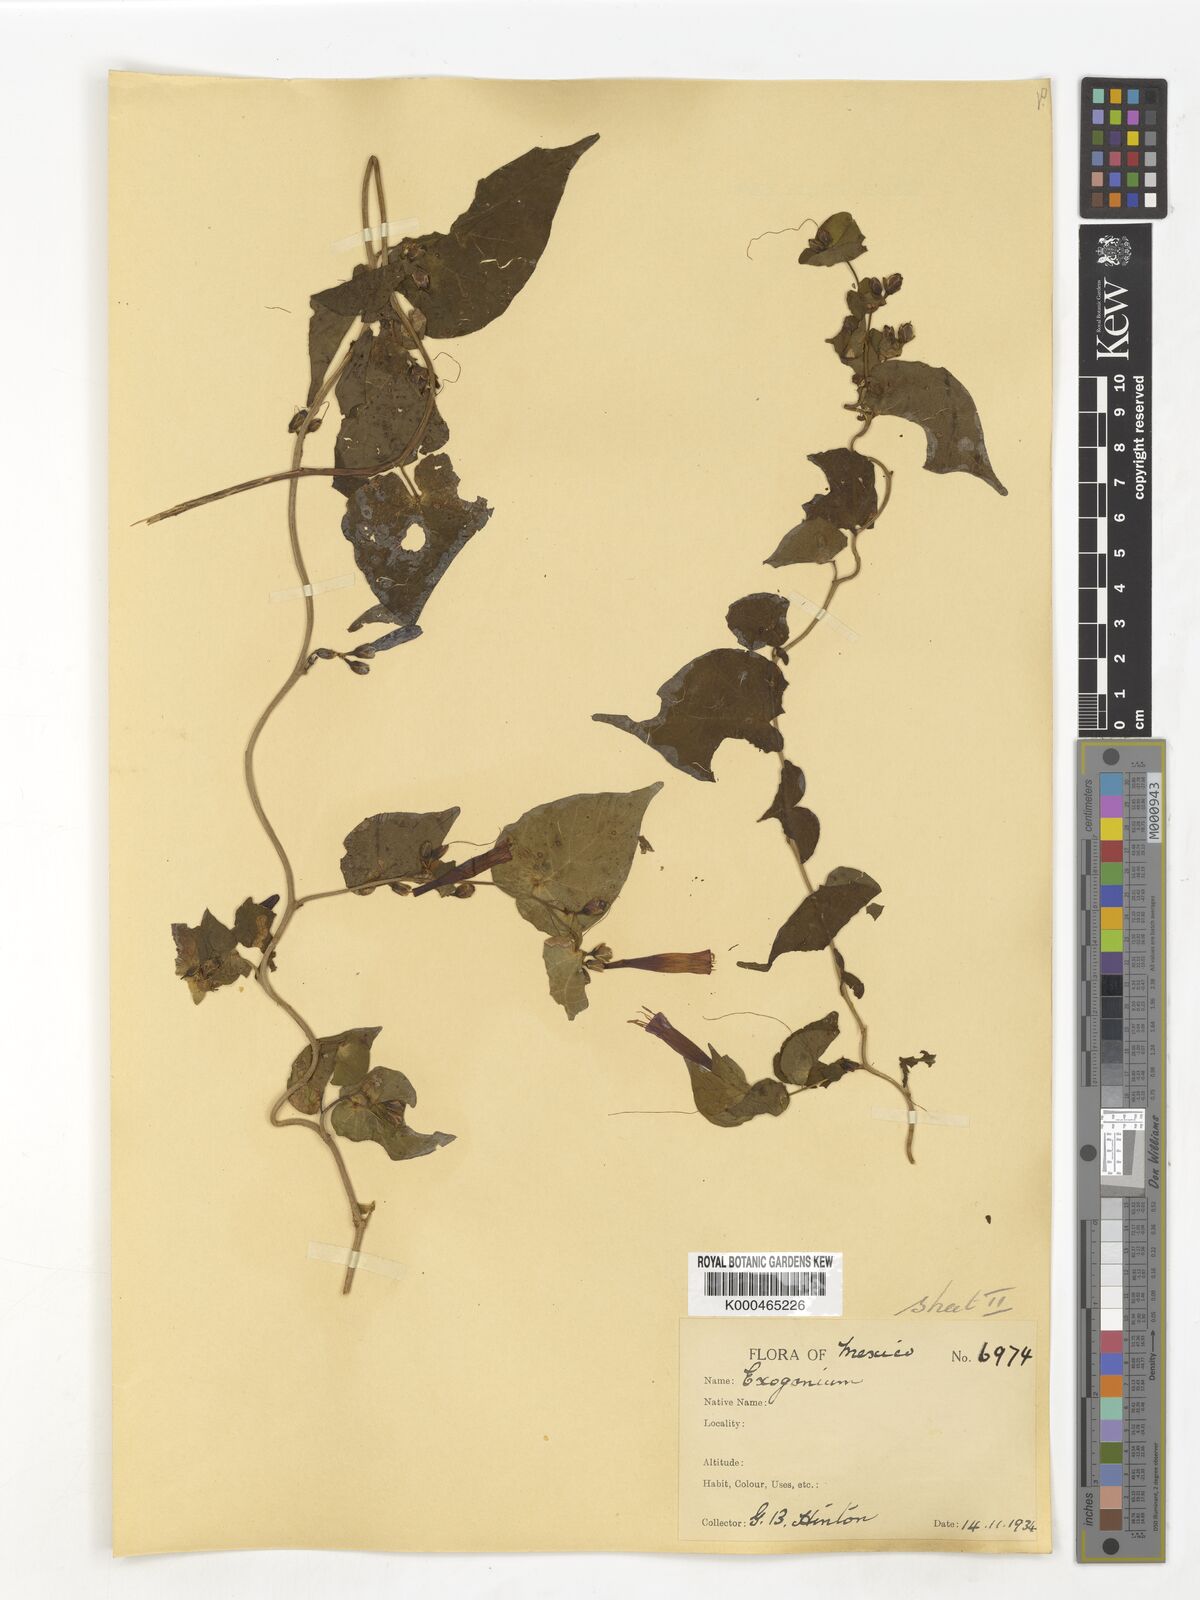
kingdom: Plantae
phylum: Tracheophyta
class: Magnoliopsida
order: Solanales
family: Convolvulaceae
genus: Ipomoea
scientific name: Ipomoea bracteata
